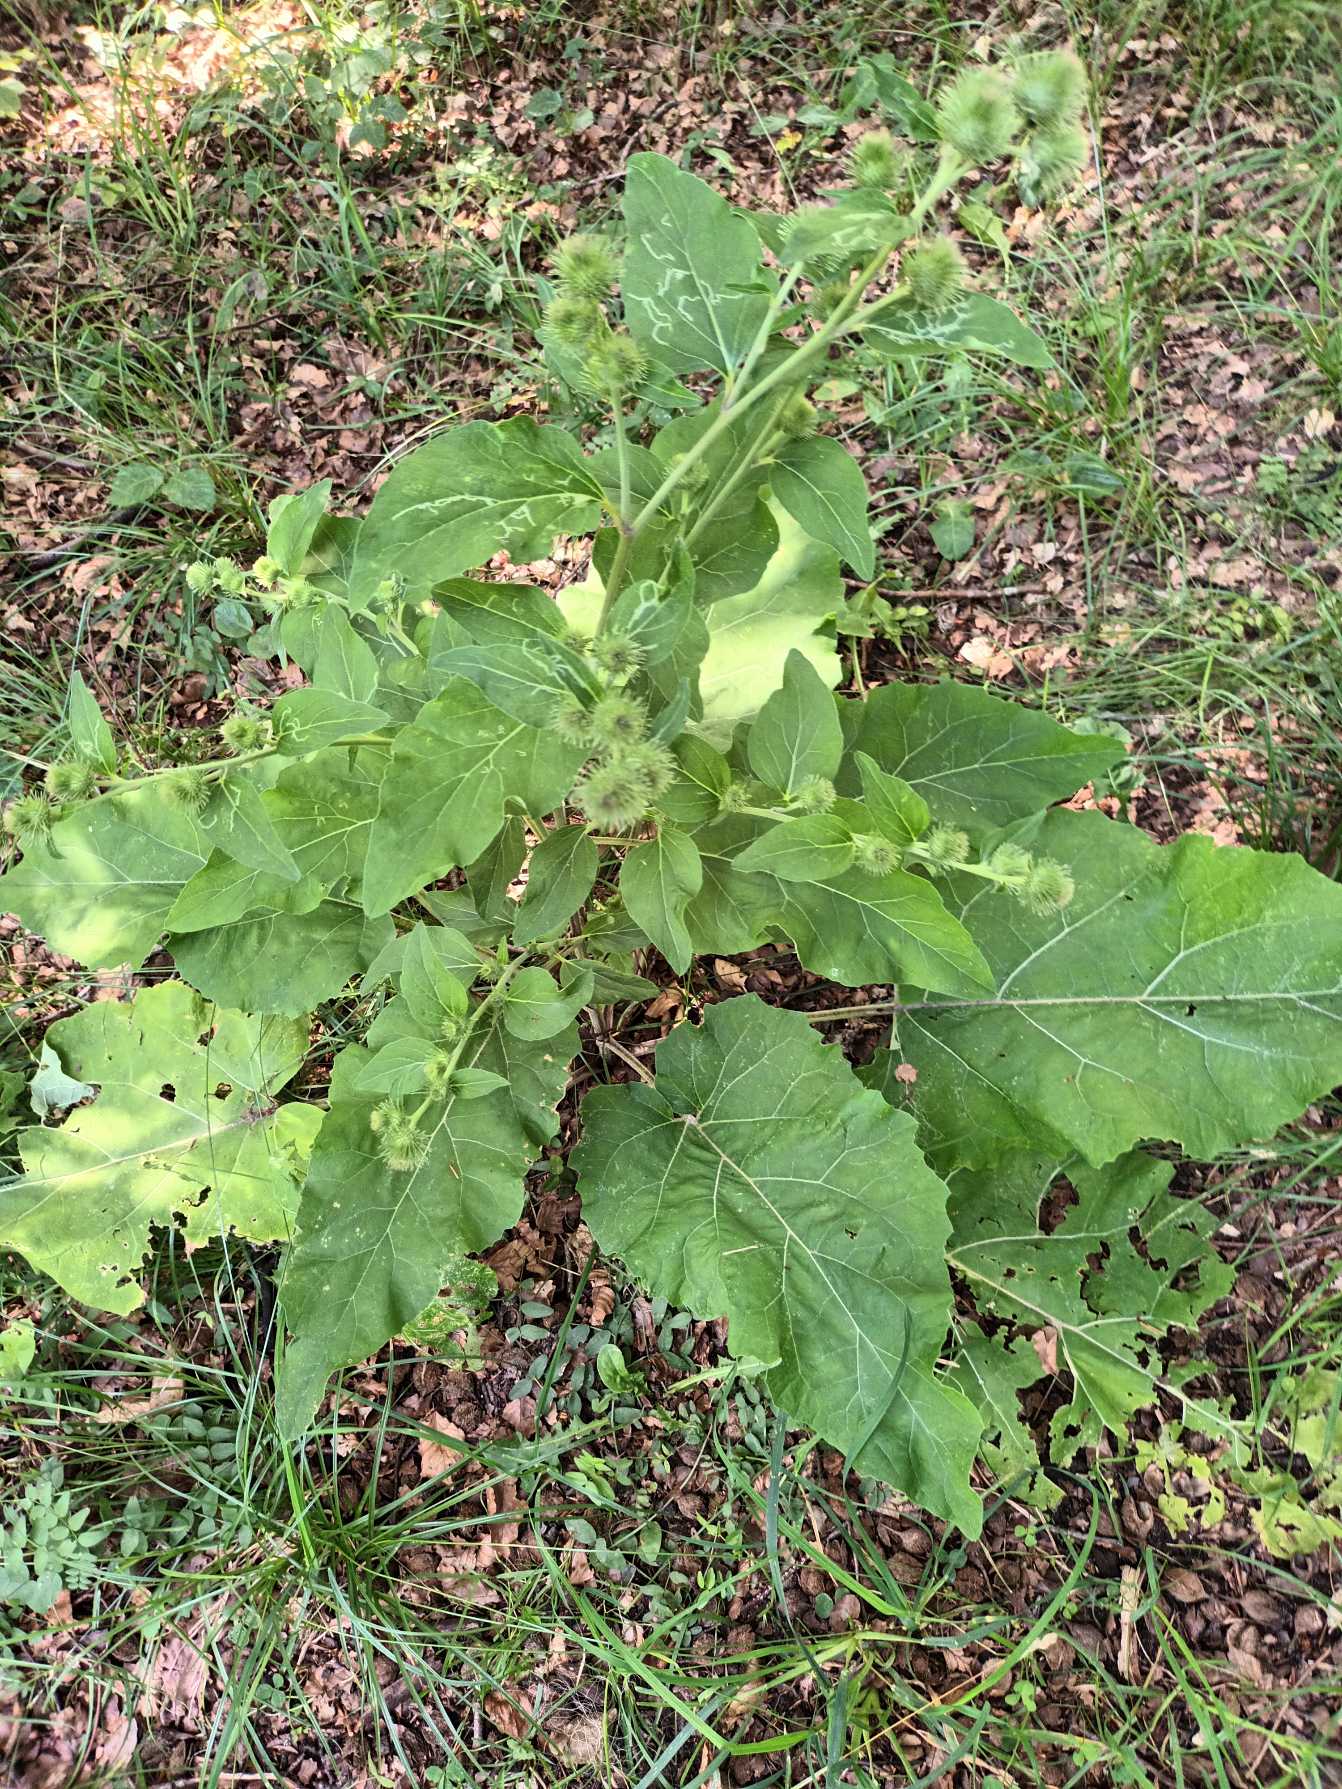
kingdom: Plantae
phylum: Tracheophyta
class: Magnoliopsida
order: Asterales
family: Asteraceae
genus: Arctium
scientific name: Arctium nemorosum
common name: Skov-burre
